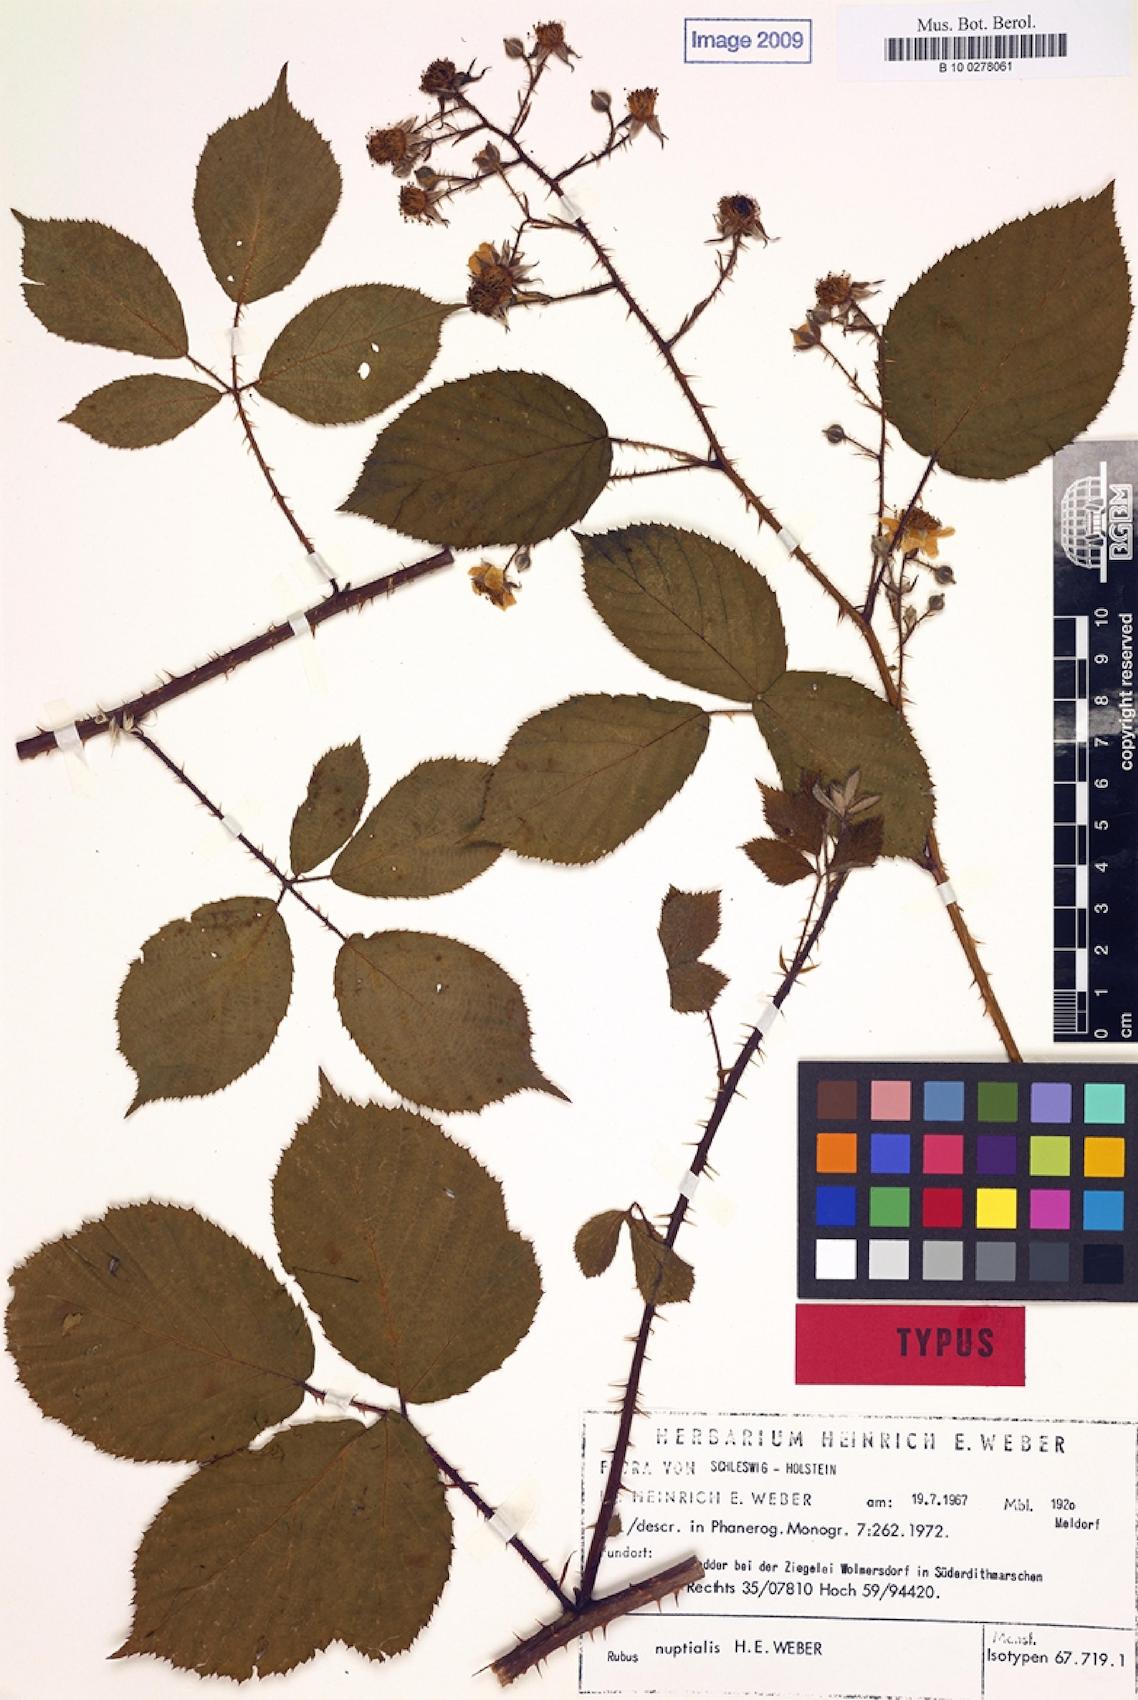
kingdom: Plantae
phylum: Tracheophyta
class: Magnoliopsida
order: Rosales
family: Rosaceae
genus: Rubus
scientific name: Rubus nuptialis
